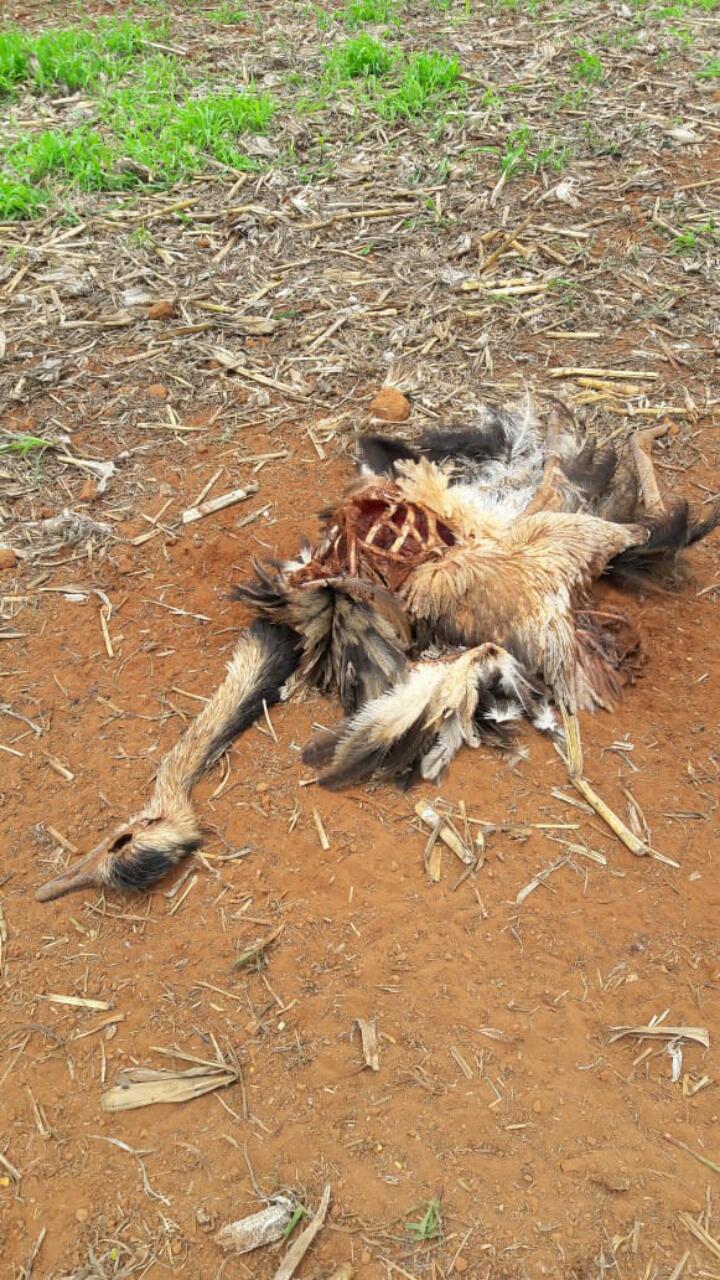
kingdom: Animalia
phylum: Chordata
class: Aves
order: Rheiformes
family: Rheidae
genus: Rhea
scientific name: Rhea americana
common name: Greater rhea
